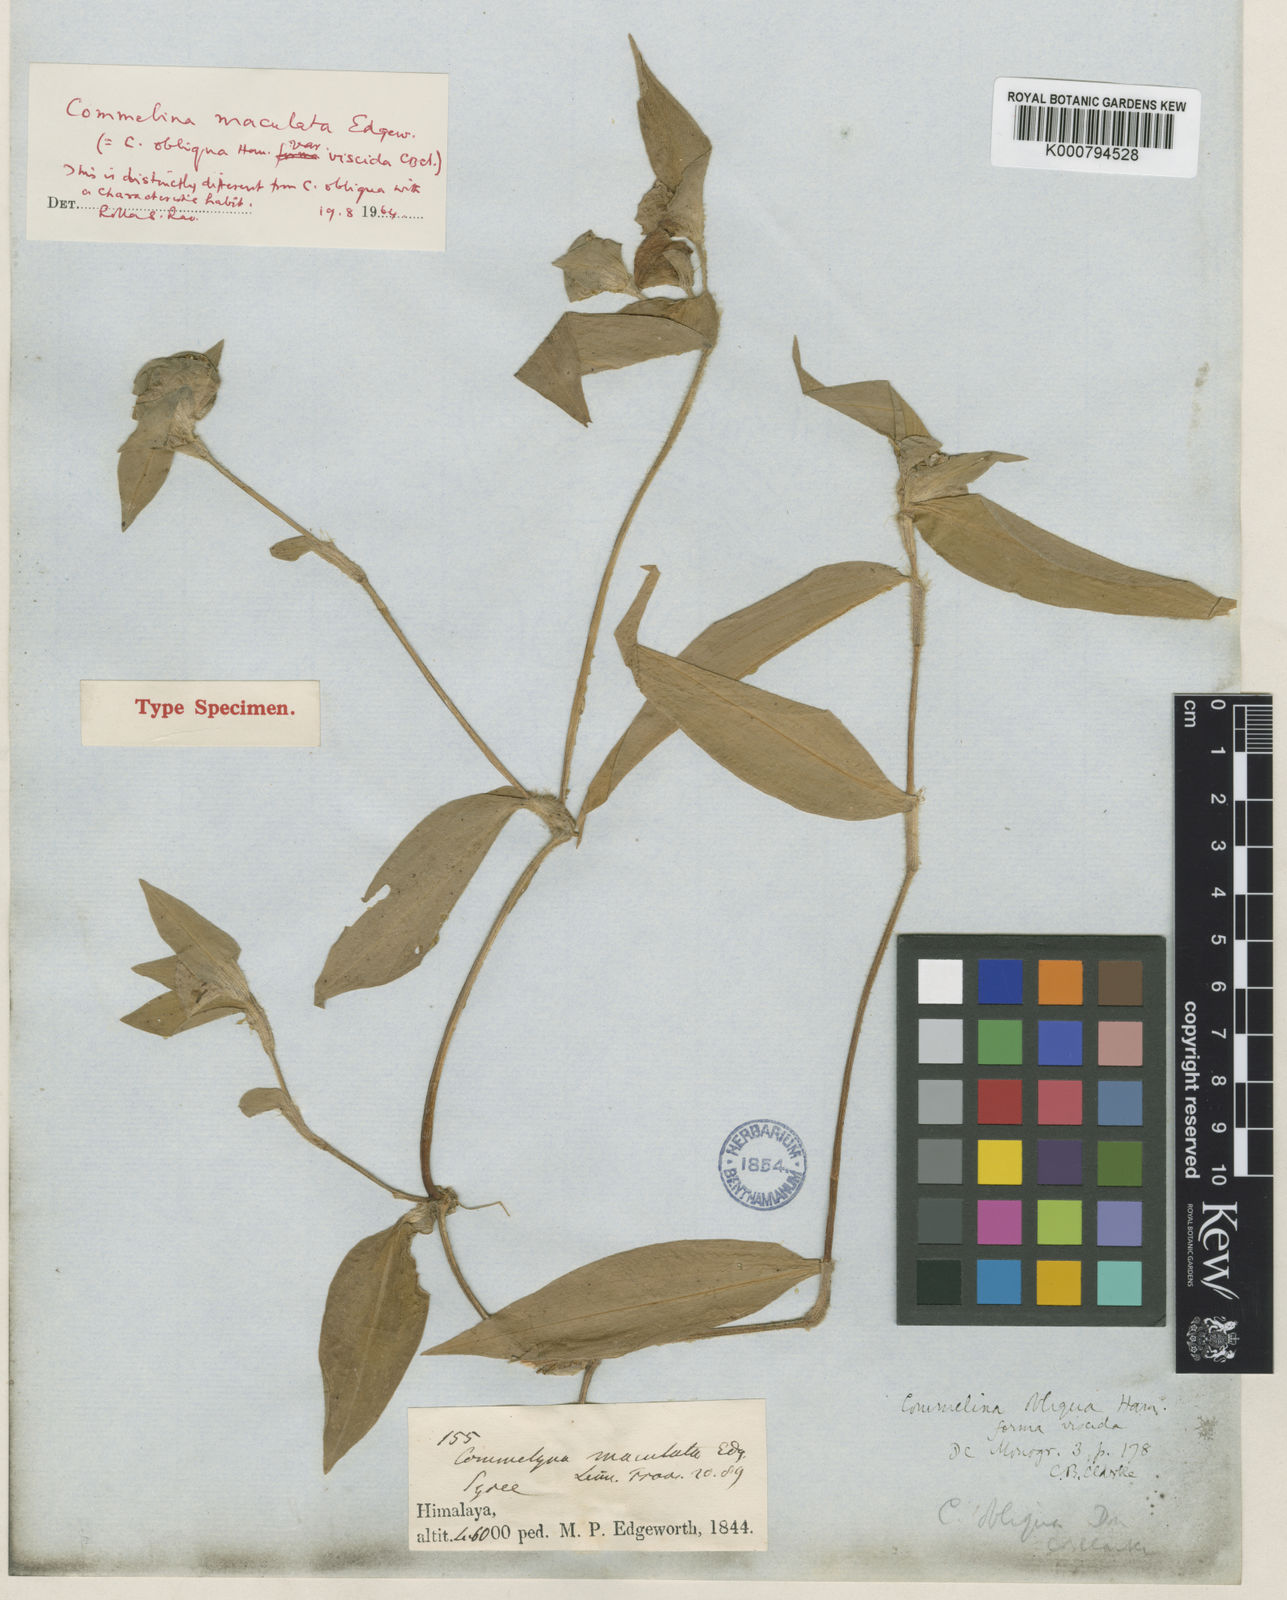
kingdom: Plantae
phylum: Tracheophyta
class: Liliopsida
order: Commelinales
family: Commelinaceae
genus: Commelina
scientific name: Commelina maculata
